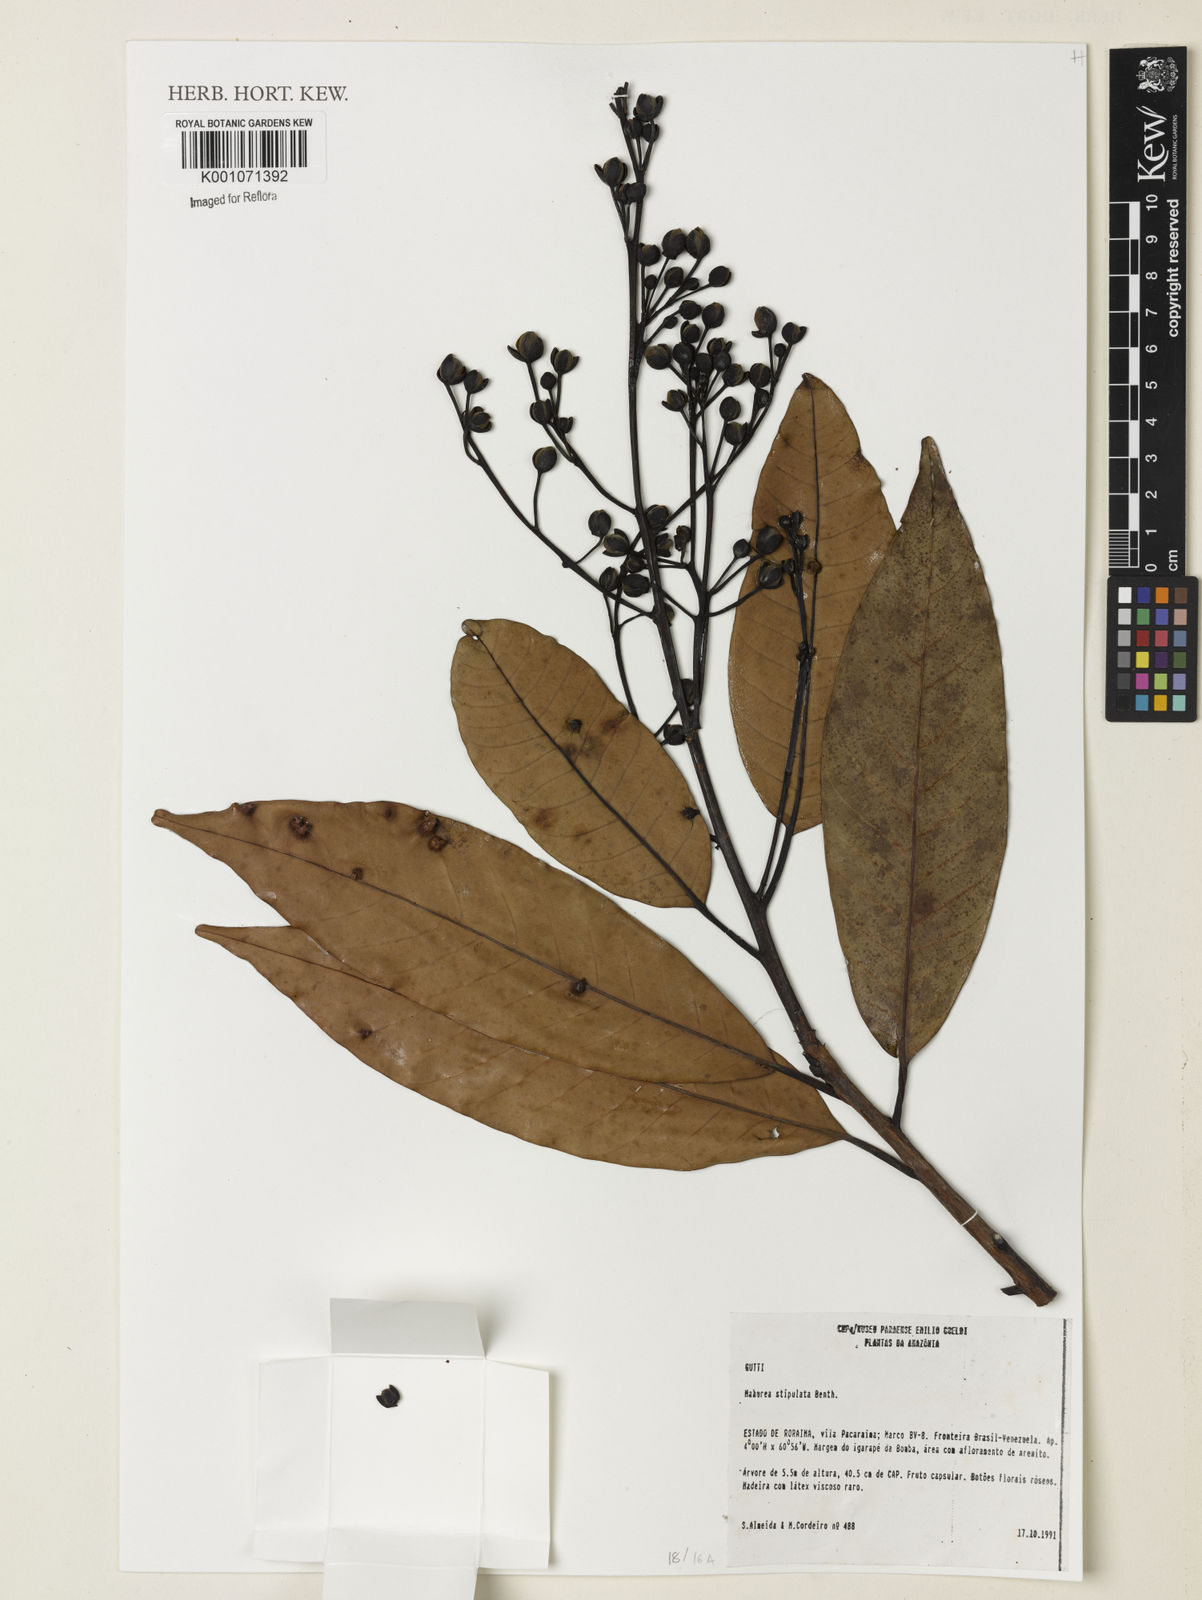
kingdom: Plantae
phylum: Tracheophyta
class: Magnoliopsida
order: Malpighiales
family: Calophyllaceae
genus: Mahurea
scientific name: Mahurea exstipulata
